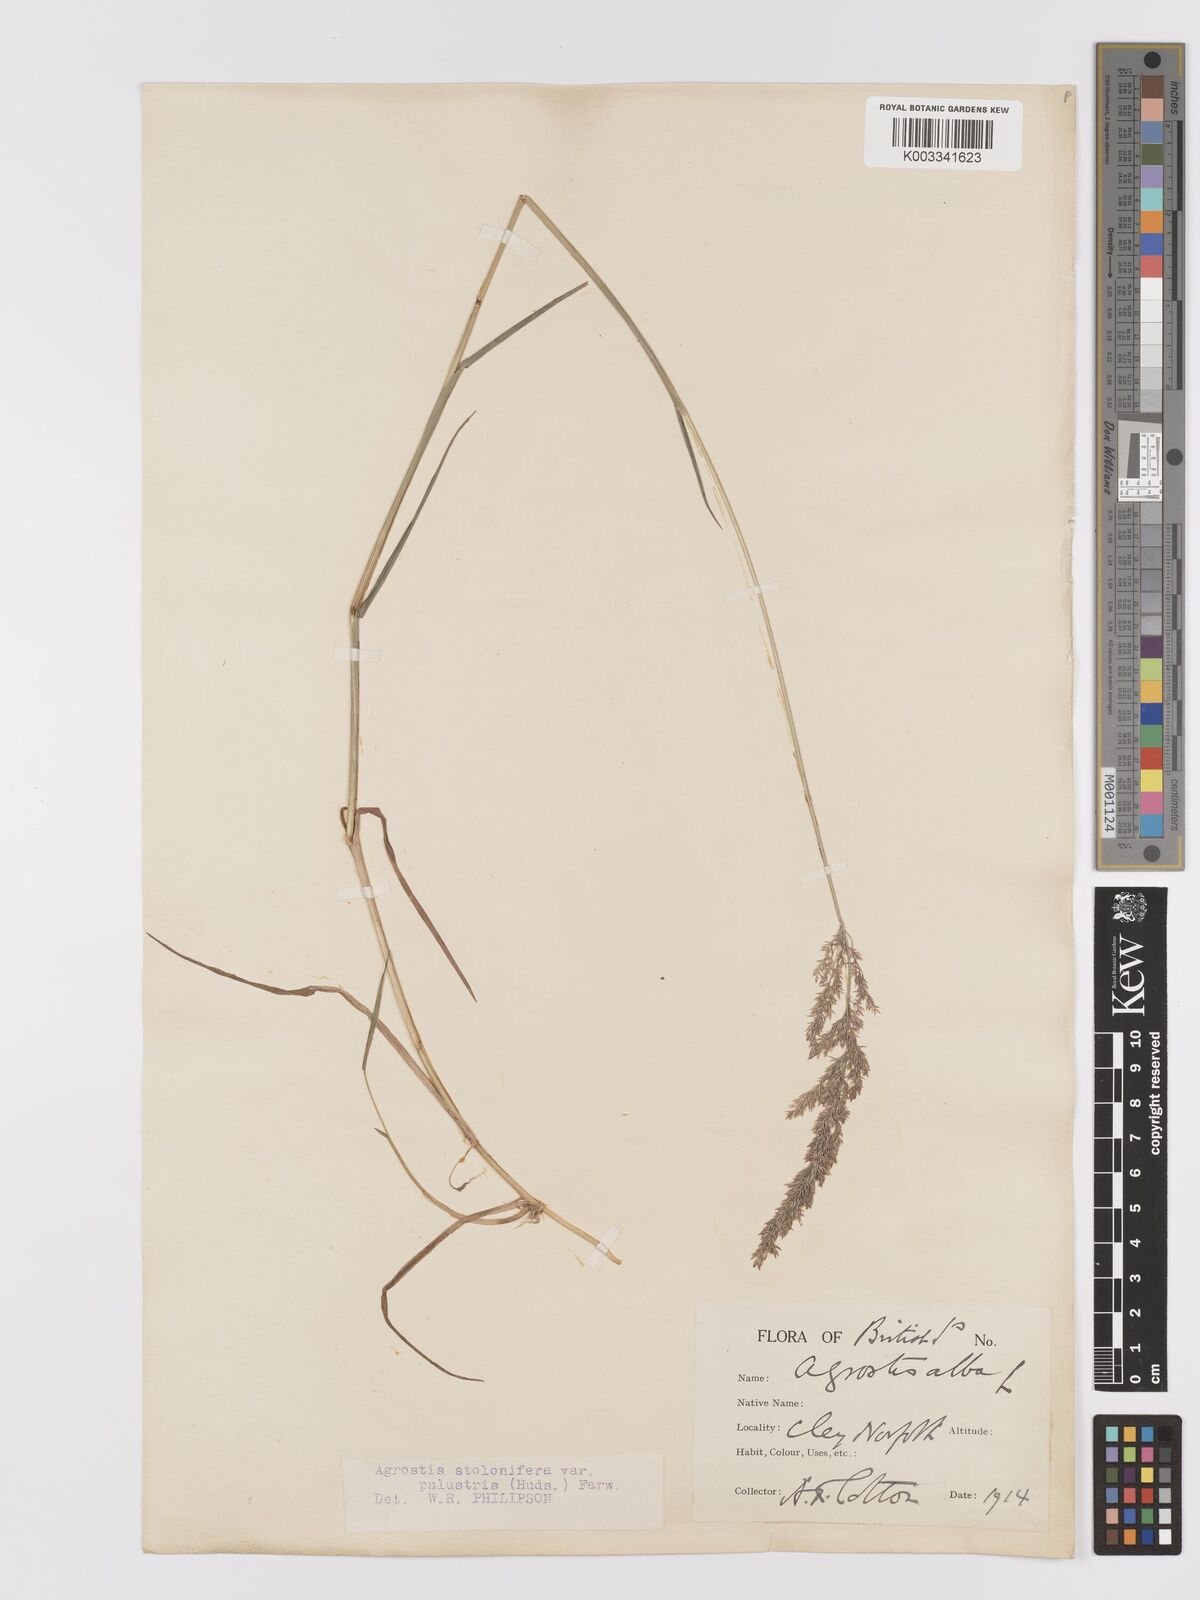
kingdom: Plantae
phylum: Tracheophyta
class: Liliopsida
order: Poales
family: Poaceae
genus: Agrostis
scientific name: Agrostis stolonifera
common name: Creeping bentgrass
